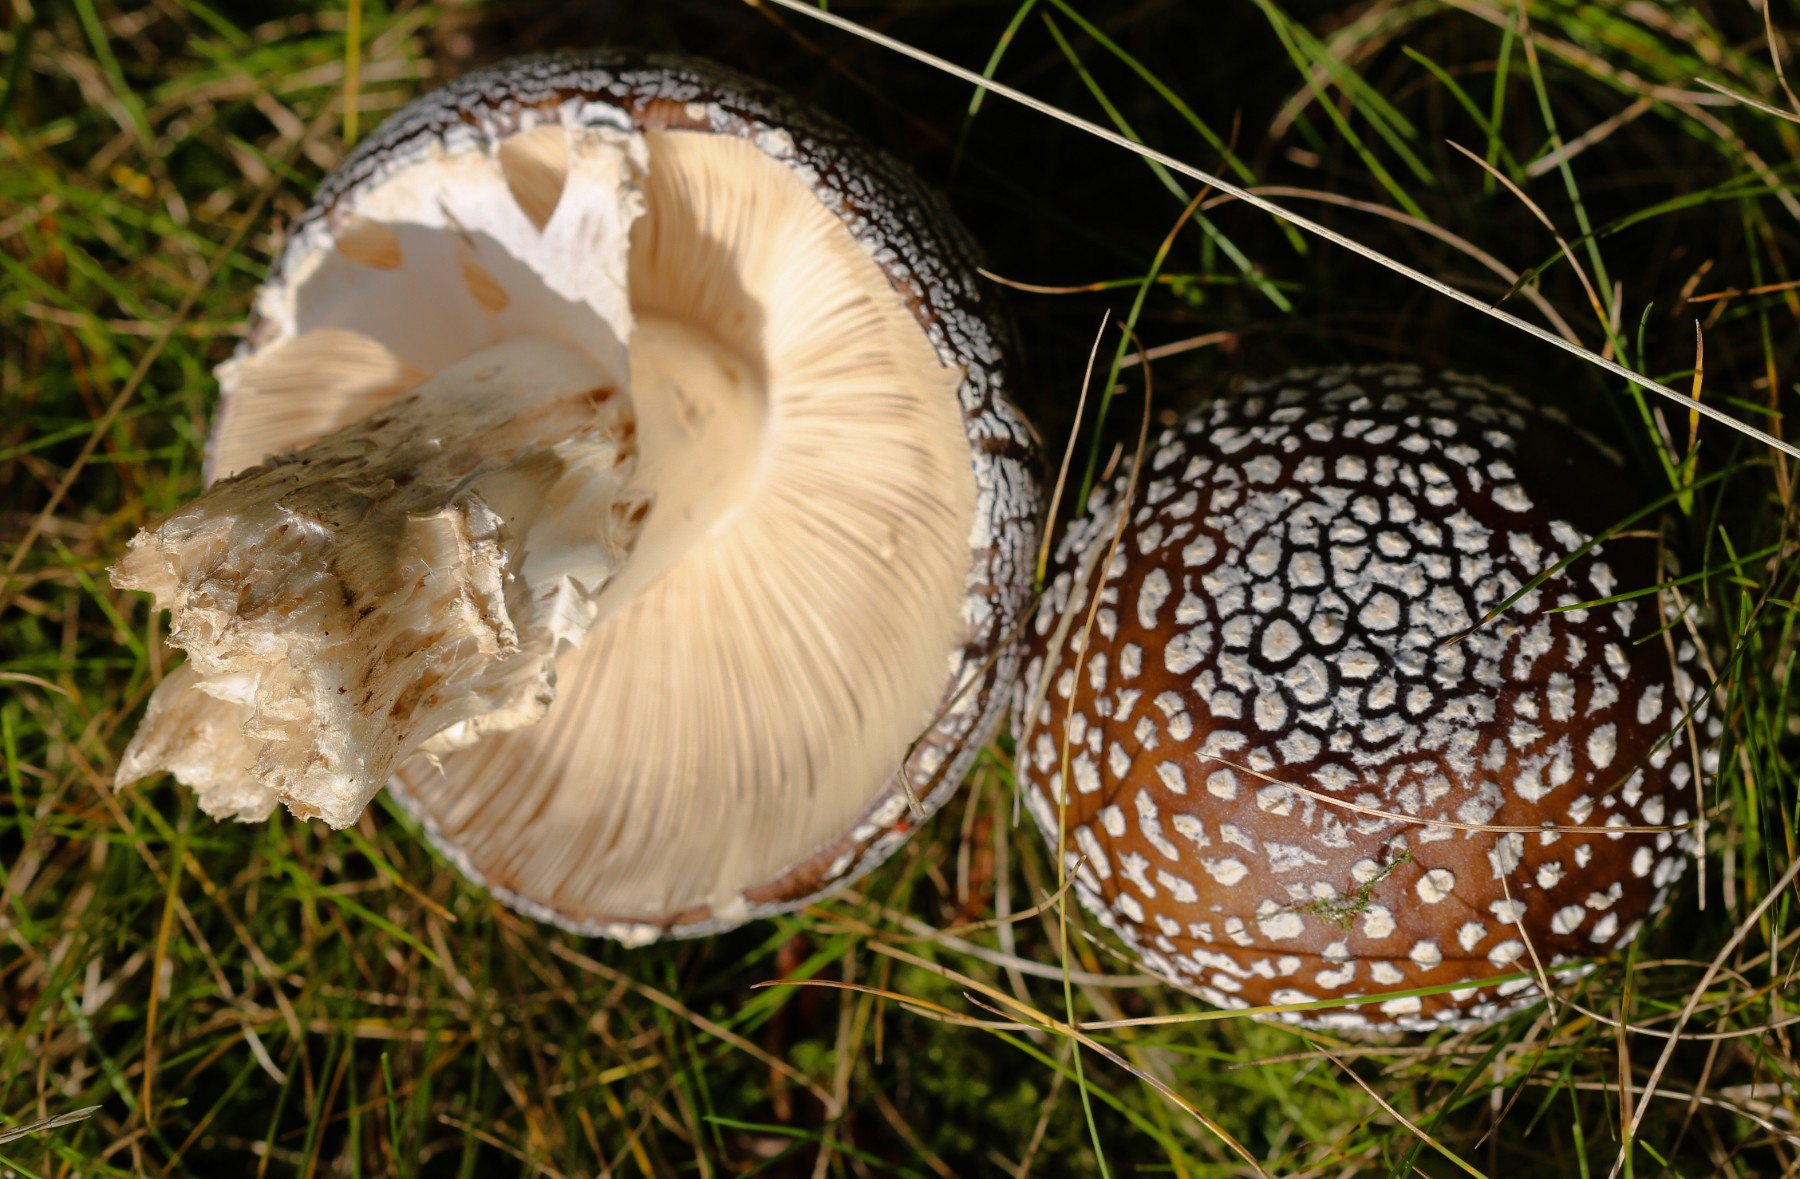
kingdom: Fungi
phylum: Basidiomycota
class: Agaricomycetes
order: Agaricales
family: Amanitaceae
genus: Amanita
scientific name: Amanita pantherina
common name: panter-fluesvamp
